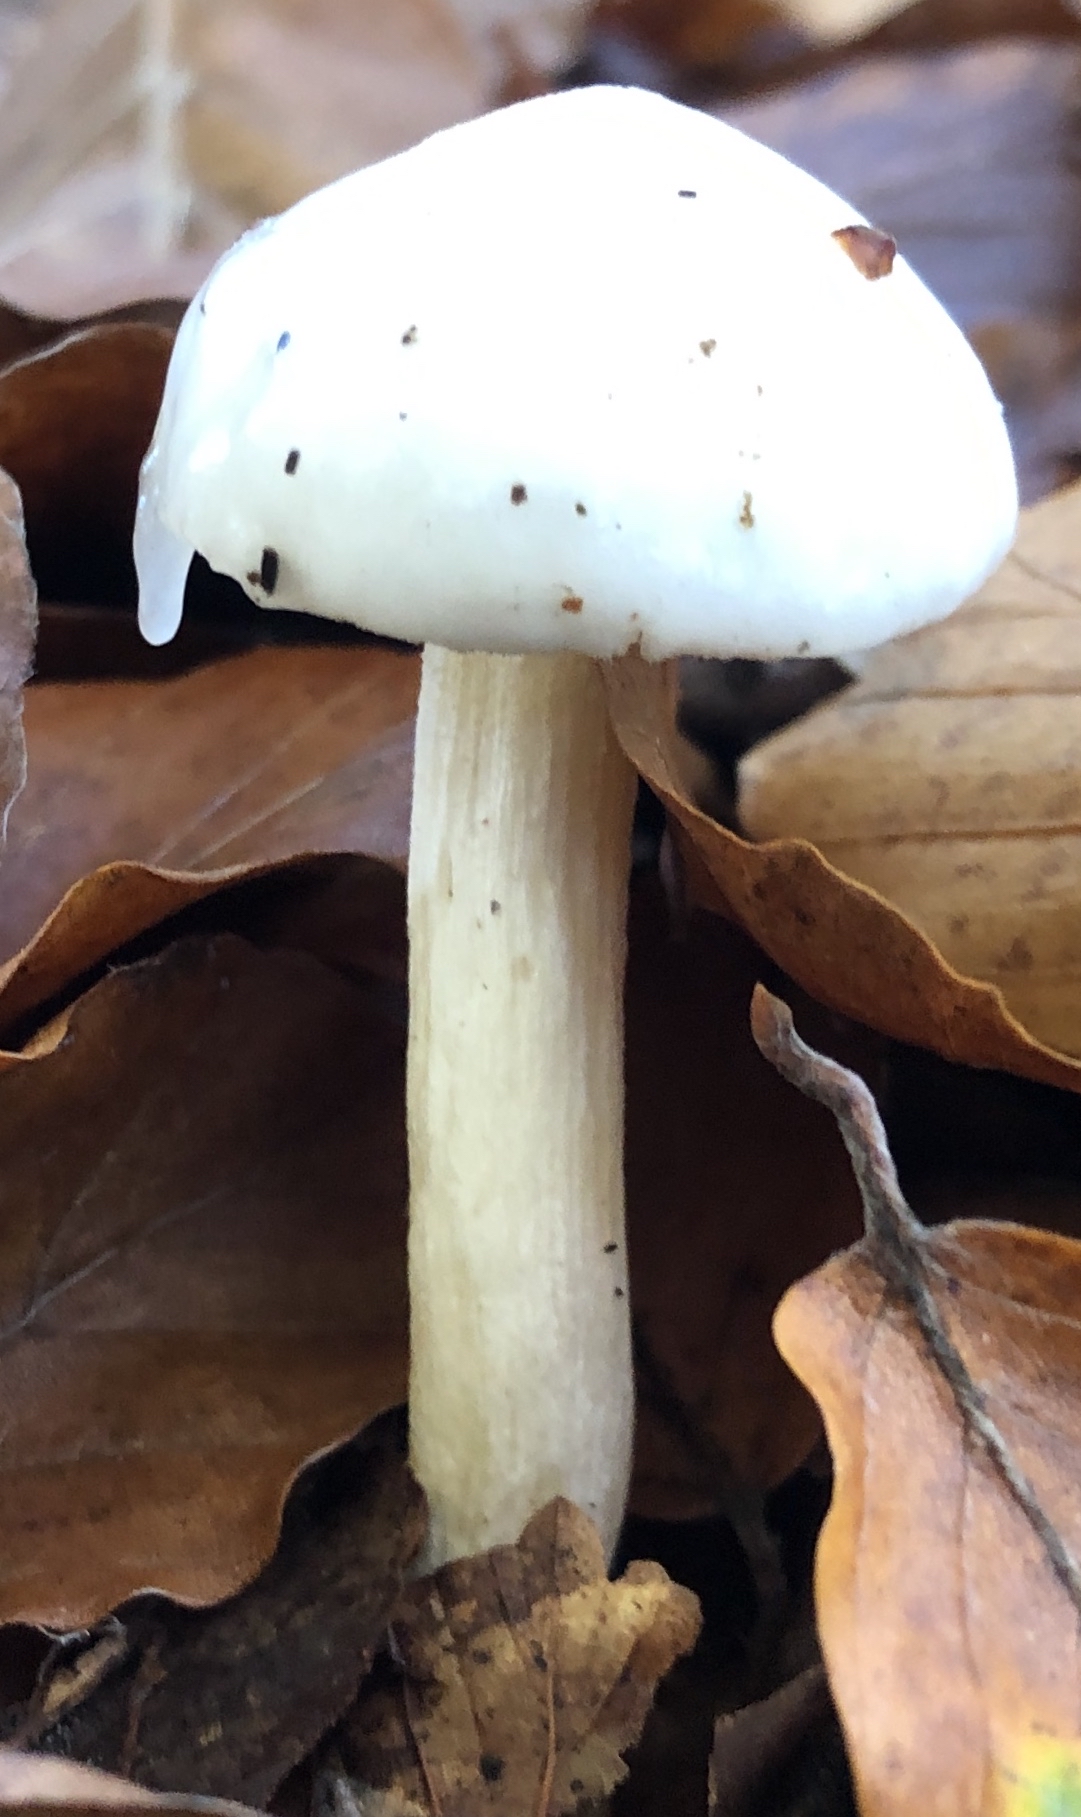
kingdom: Fungi
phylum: Basidiomycota
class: Agaricomycetes
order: Agaricales
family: Hygrophoraceae
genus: Hygrophorus
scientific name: Hygrophorus
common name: sneglehat
